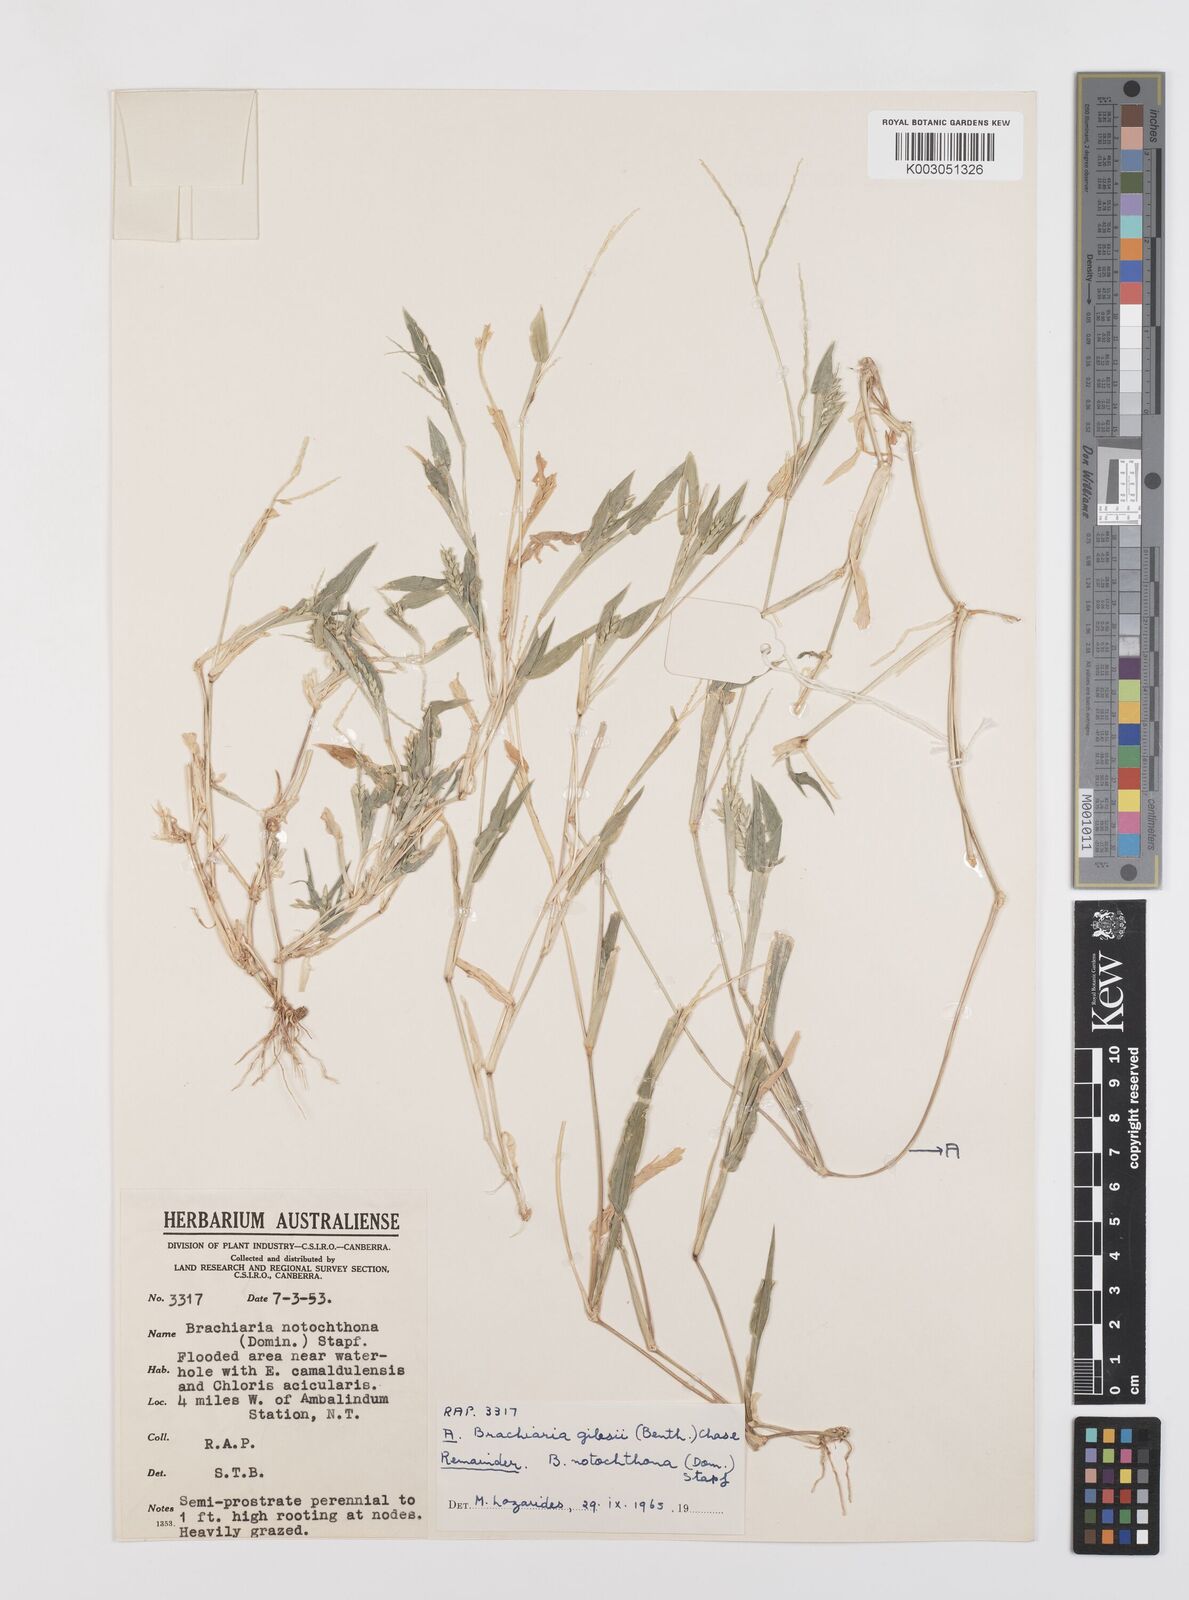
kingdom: Plantae
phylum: Tracheophyta
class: Liliopsida
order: Poales
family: Poaceae
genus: Urochloa
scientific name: Urochloa notochthona
